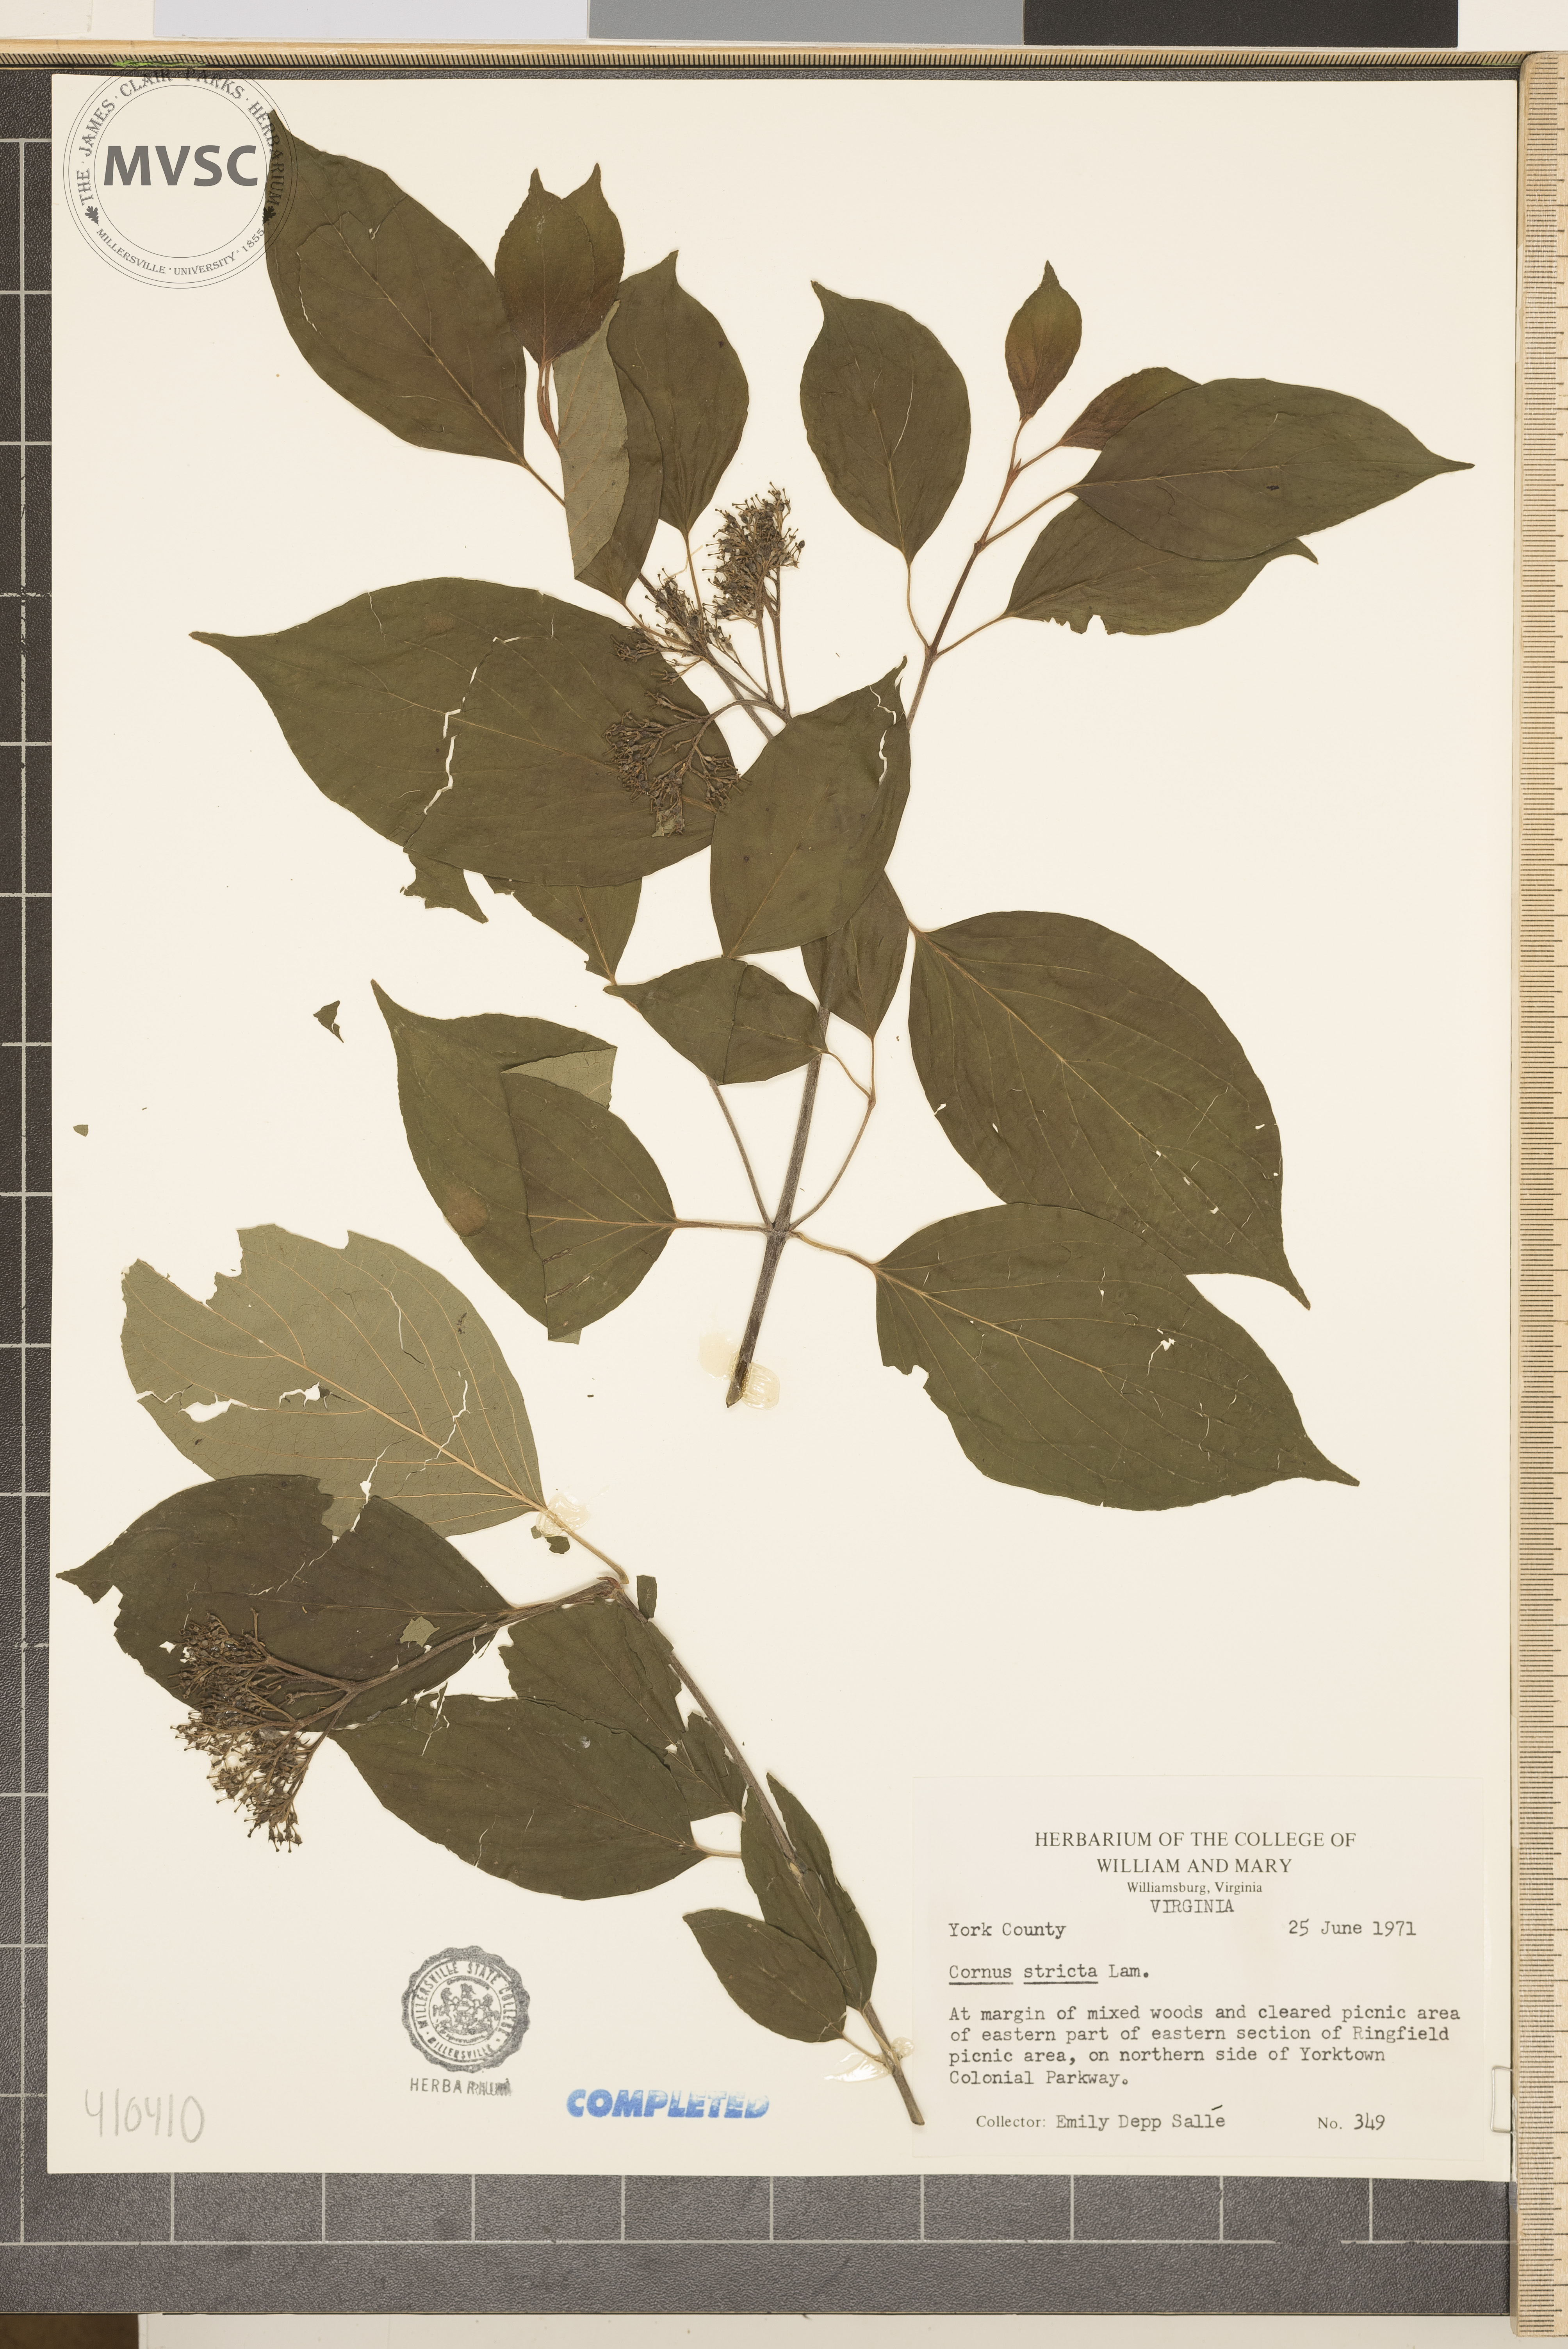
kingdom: Plantae
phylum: Tracheophyta
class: Magnoliopsida
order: Cornales
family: Cornaceae
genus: Cornus
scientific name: Cornus stricta
